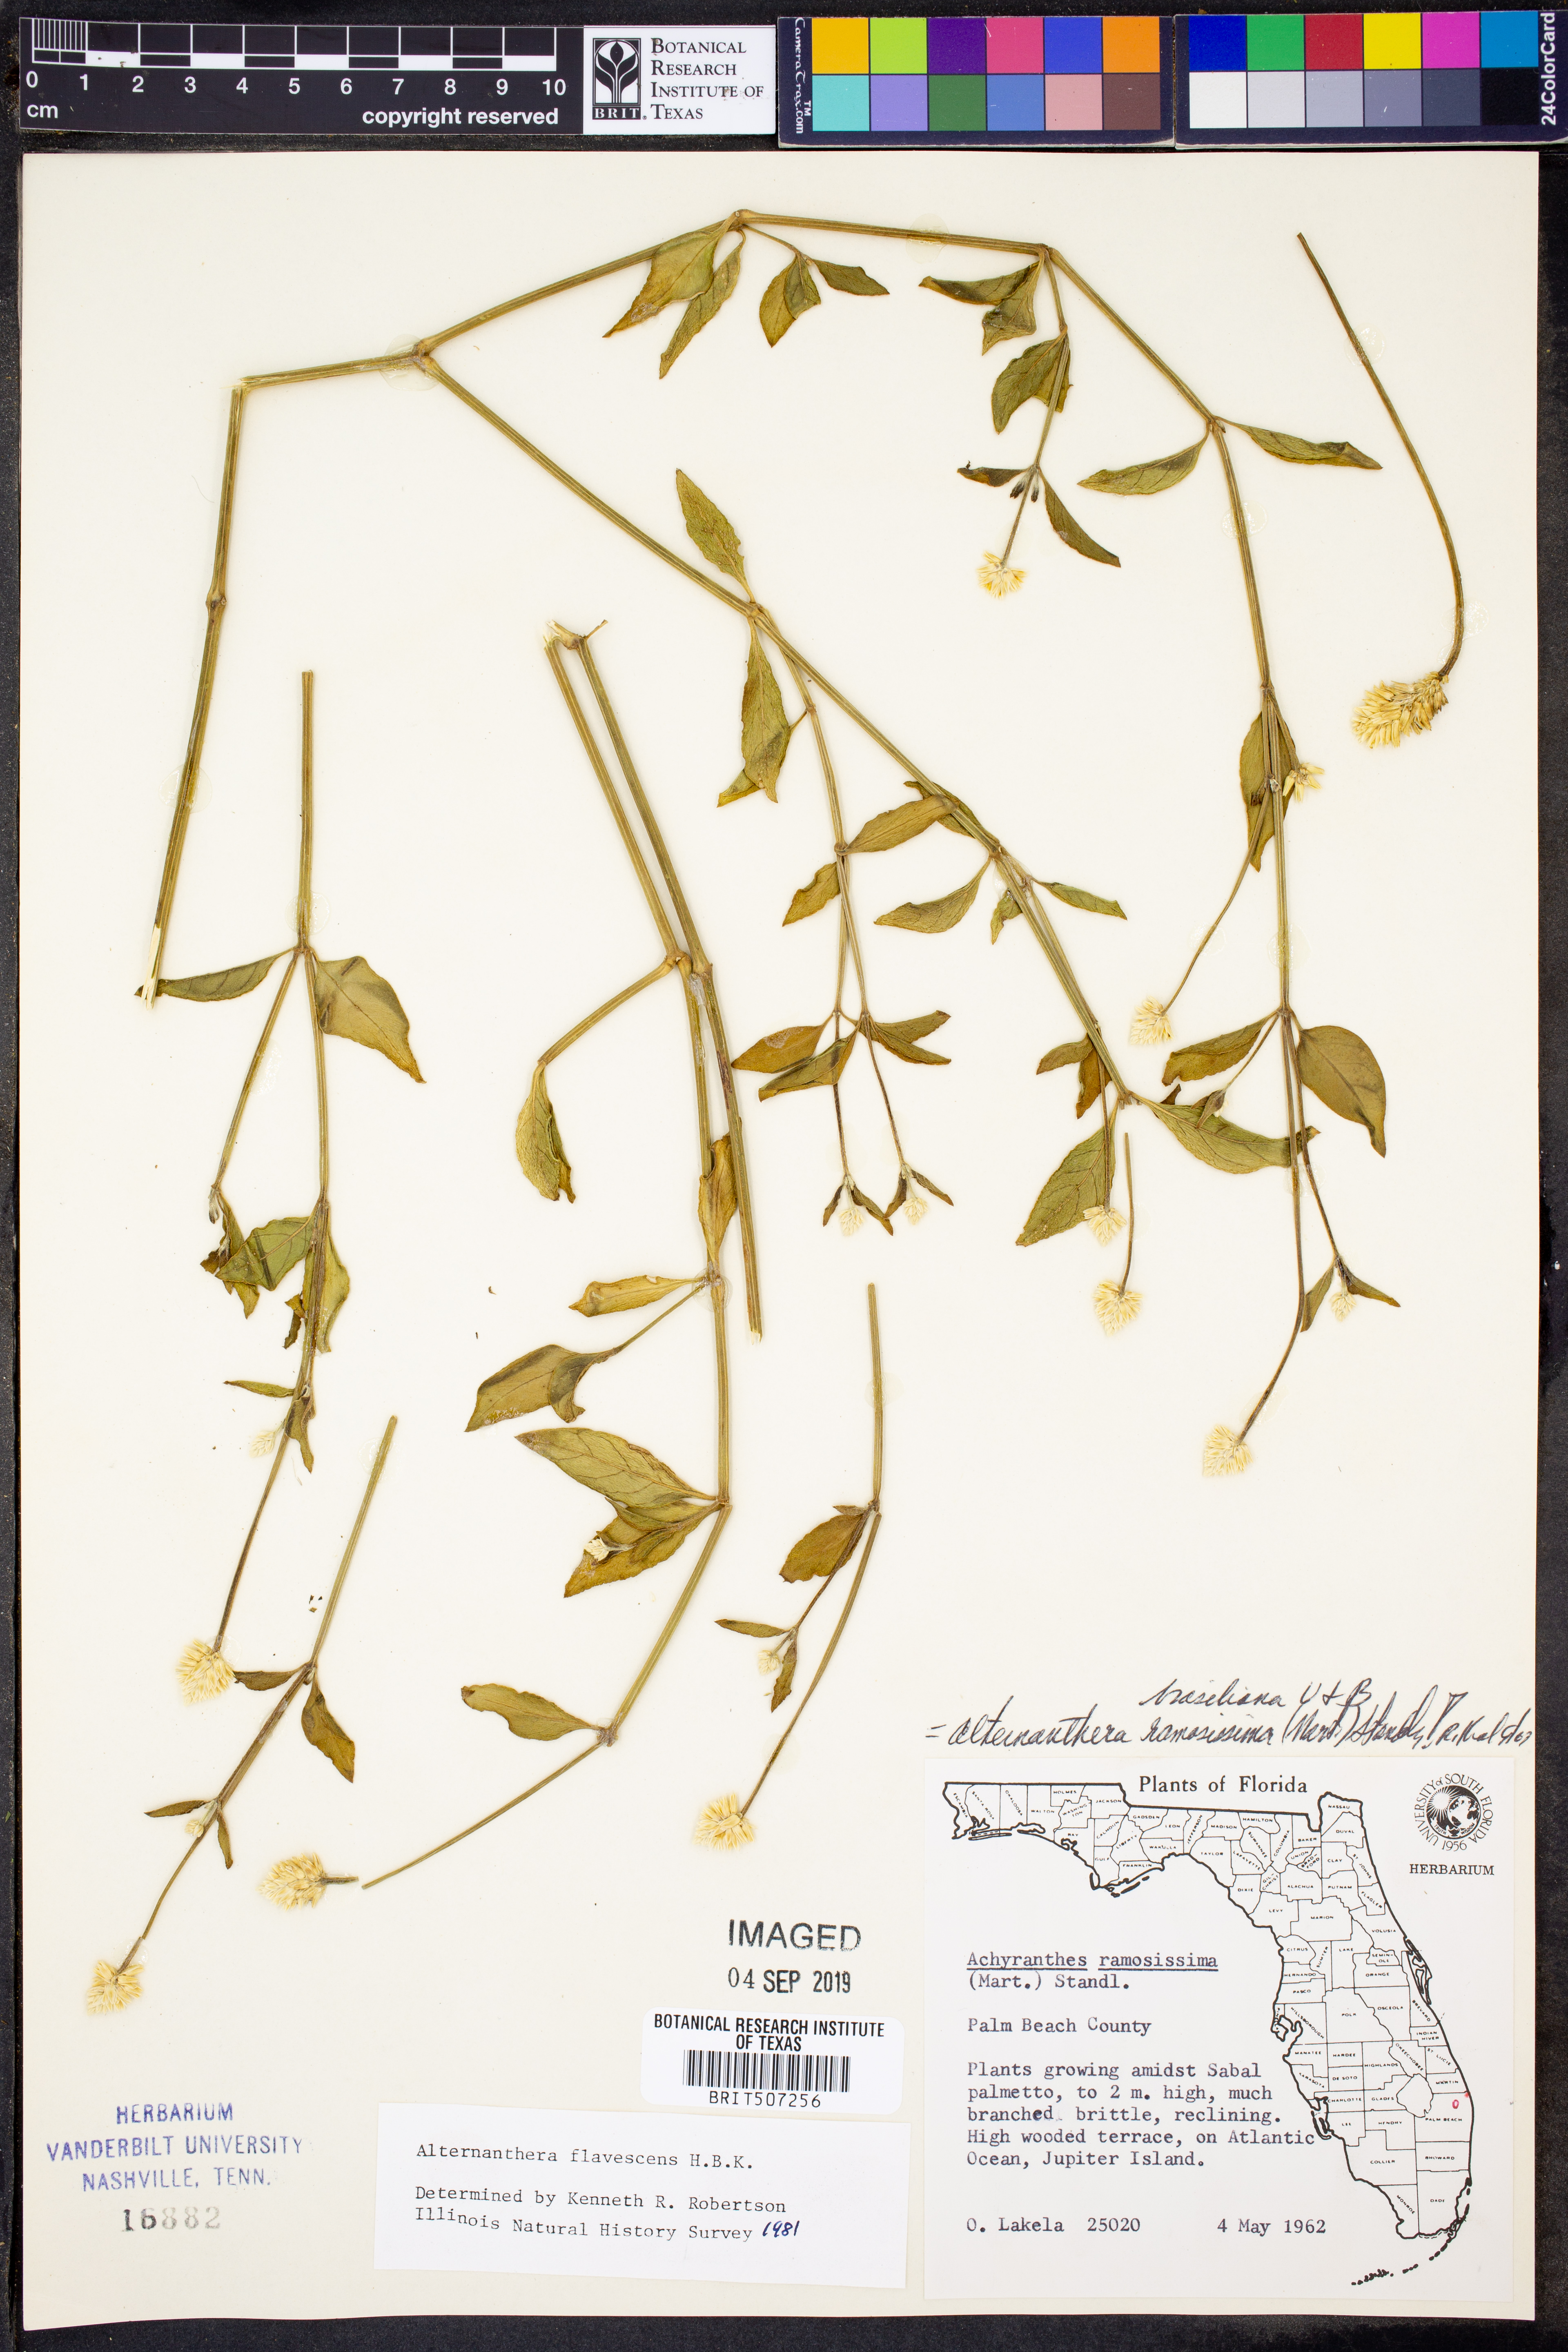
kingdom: Plantae
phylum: Tracheophyta
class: Magnoliopsida
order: Caryophyllales
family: Amaranthaceae
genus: Alternanthera
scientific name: Alternanthera flavescens
